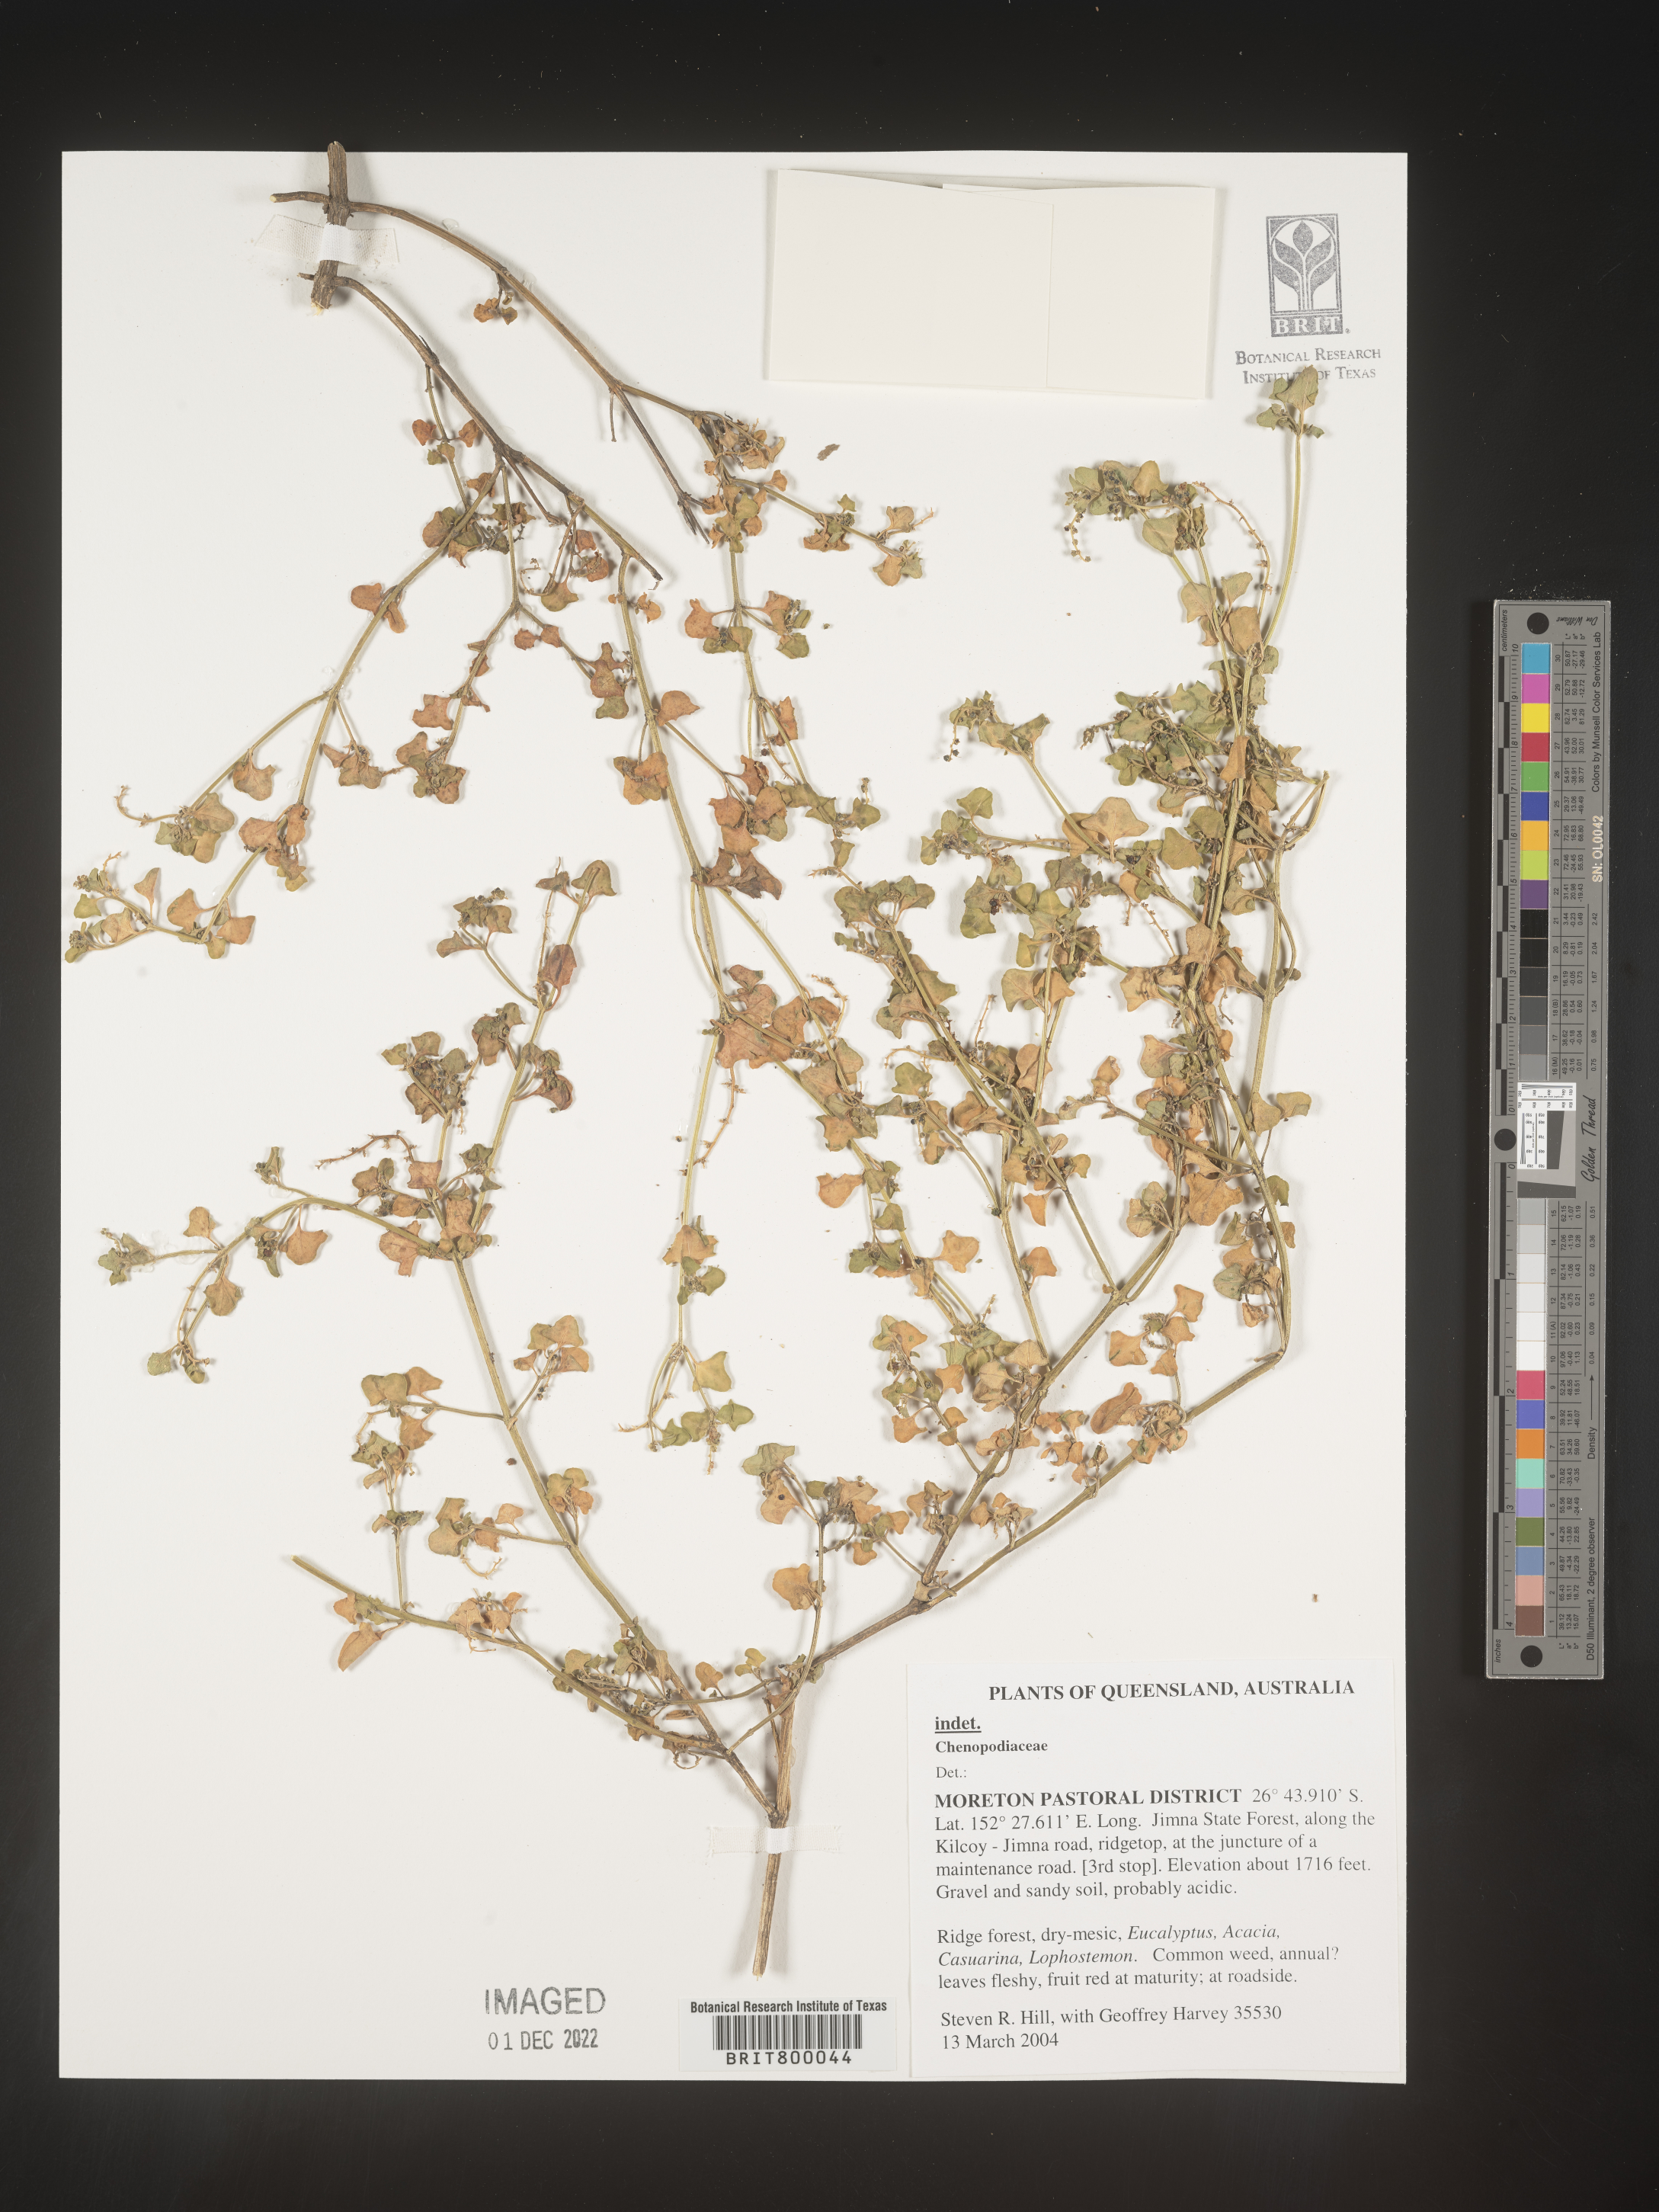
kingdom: Plantae
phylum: Tracheophyta
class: Magnoliopsida
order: Caryophyllales
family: Amaranthaceae
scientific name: Amaranthaceae
